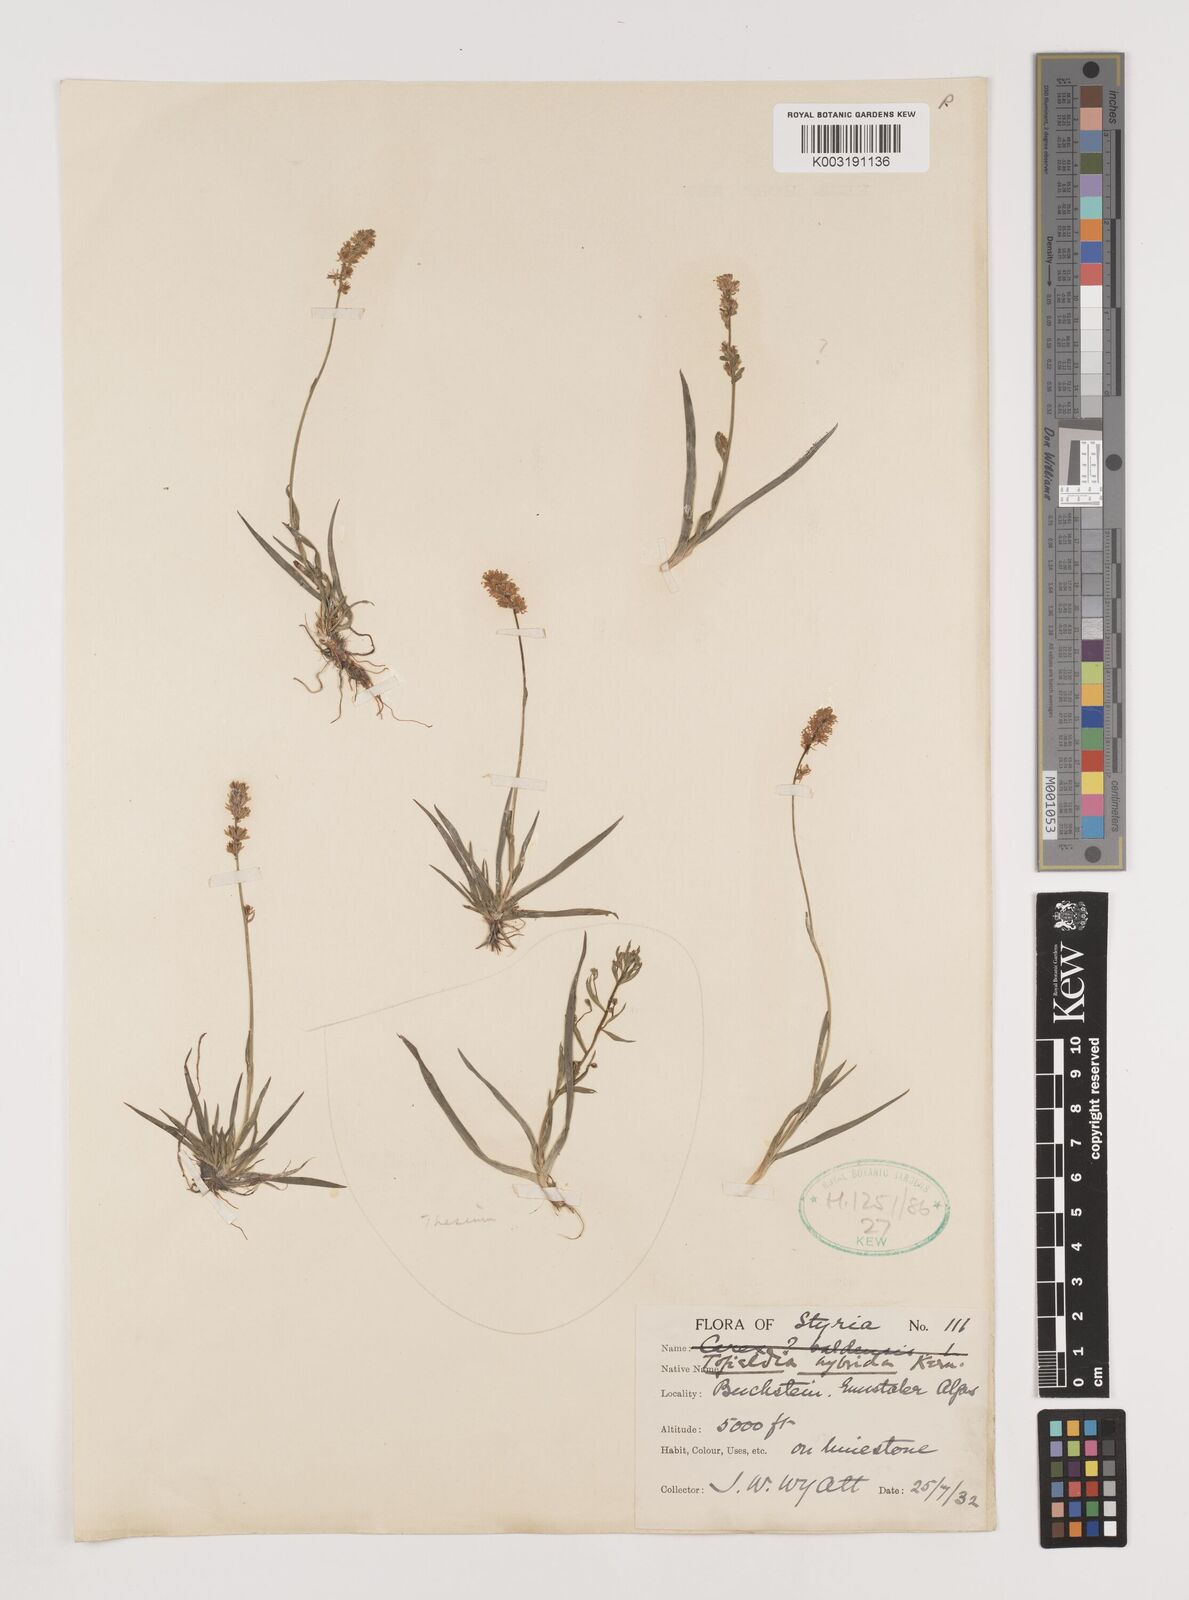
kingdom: Plantae
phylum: Tracheophyta
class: Liliopsida
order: Alismatales
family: Tofieldiaceae
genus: Tofieldia
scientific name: Tofieldia hybrida
